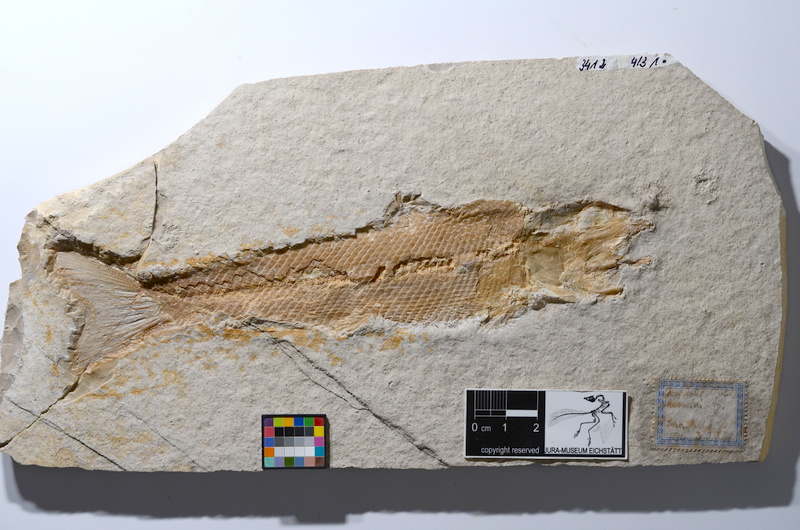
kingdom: Animalia
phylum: Chordata
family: Ophiopsiellidae
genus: Ophiopsiella
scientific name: Ophiopsiella attenuata
